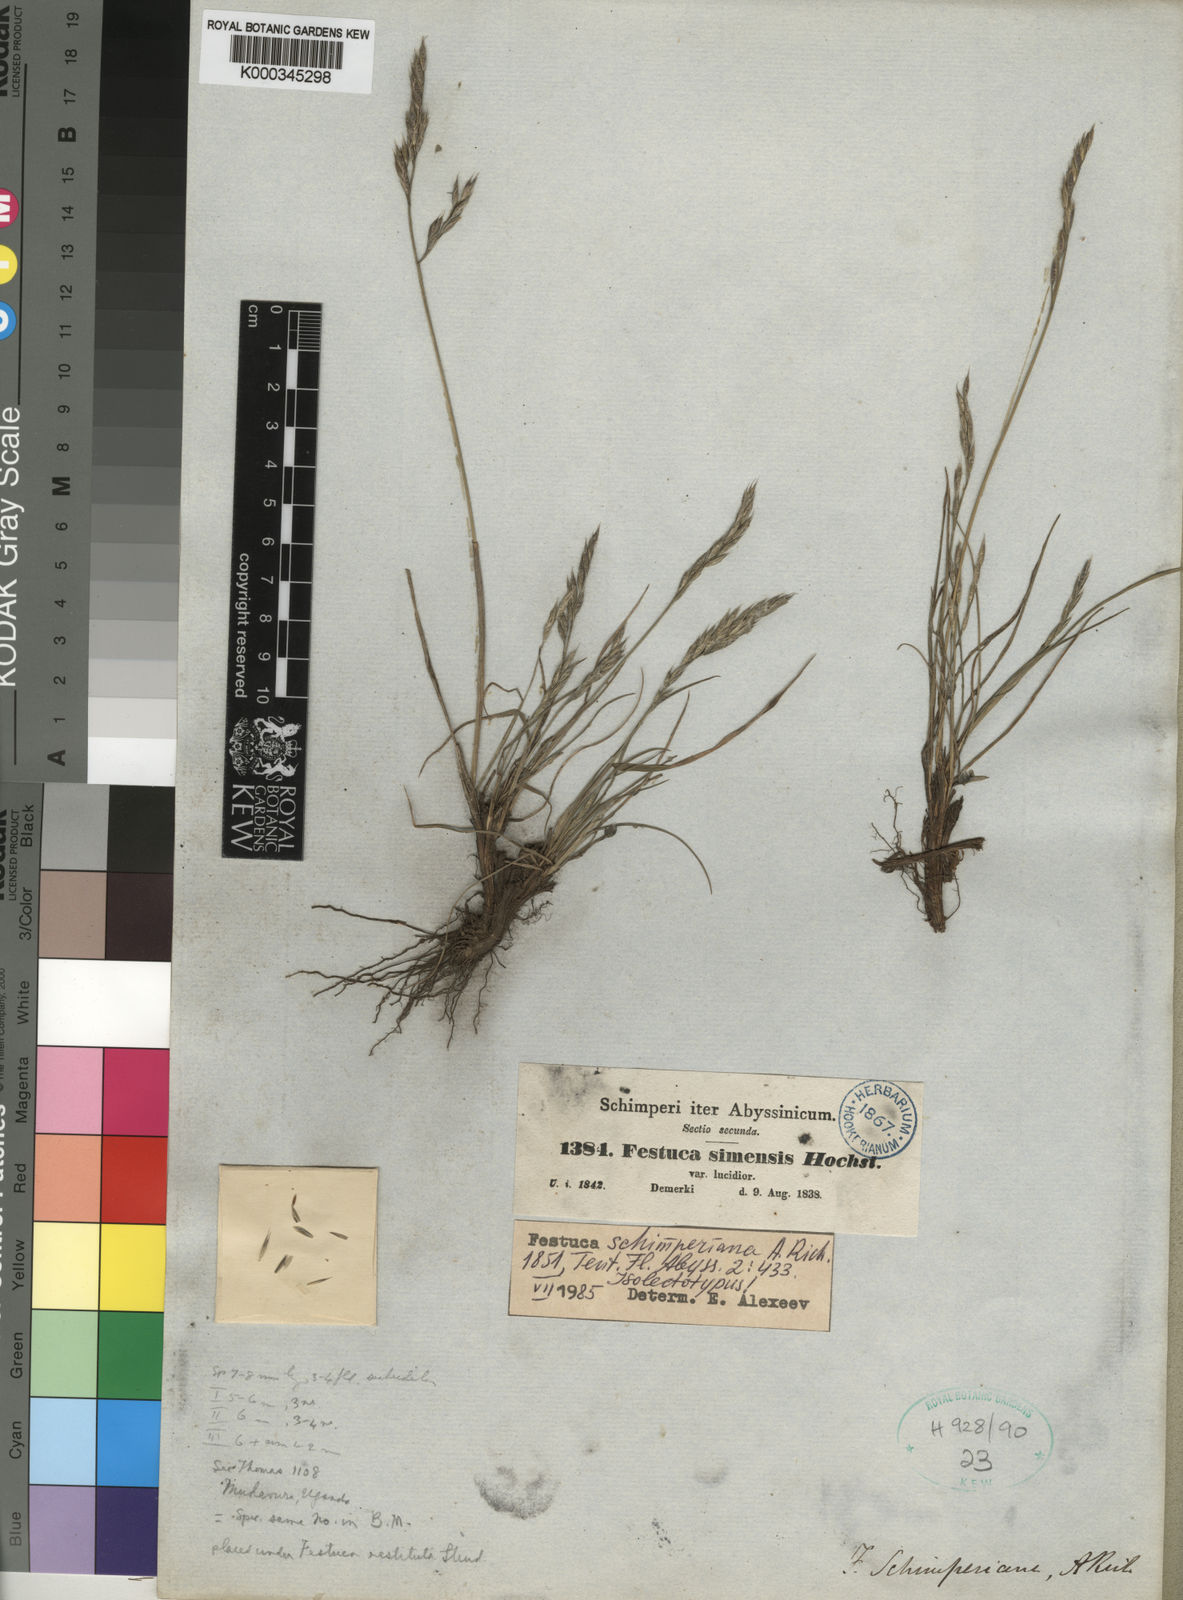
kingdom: Plantae
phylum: Tracheophyta
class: Liliopsida
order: Poales
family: Poaceae
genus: Festuca
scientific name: Festuca
